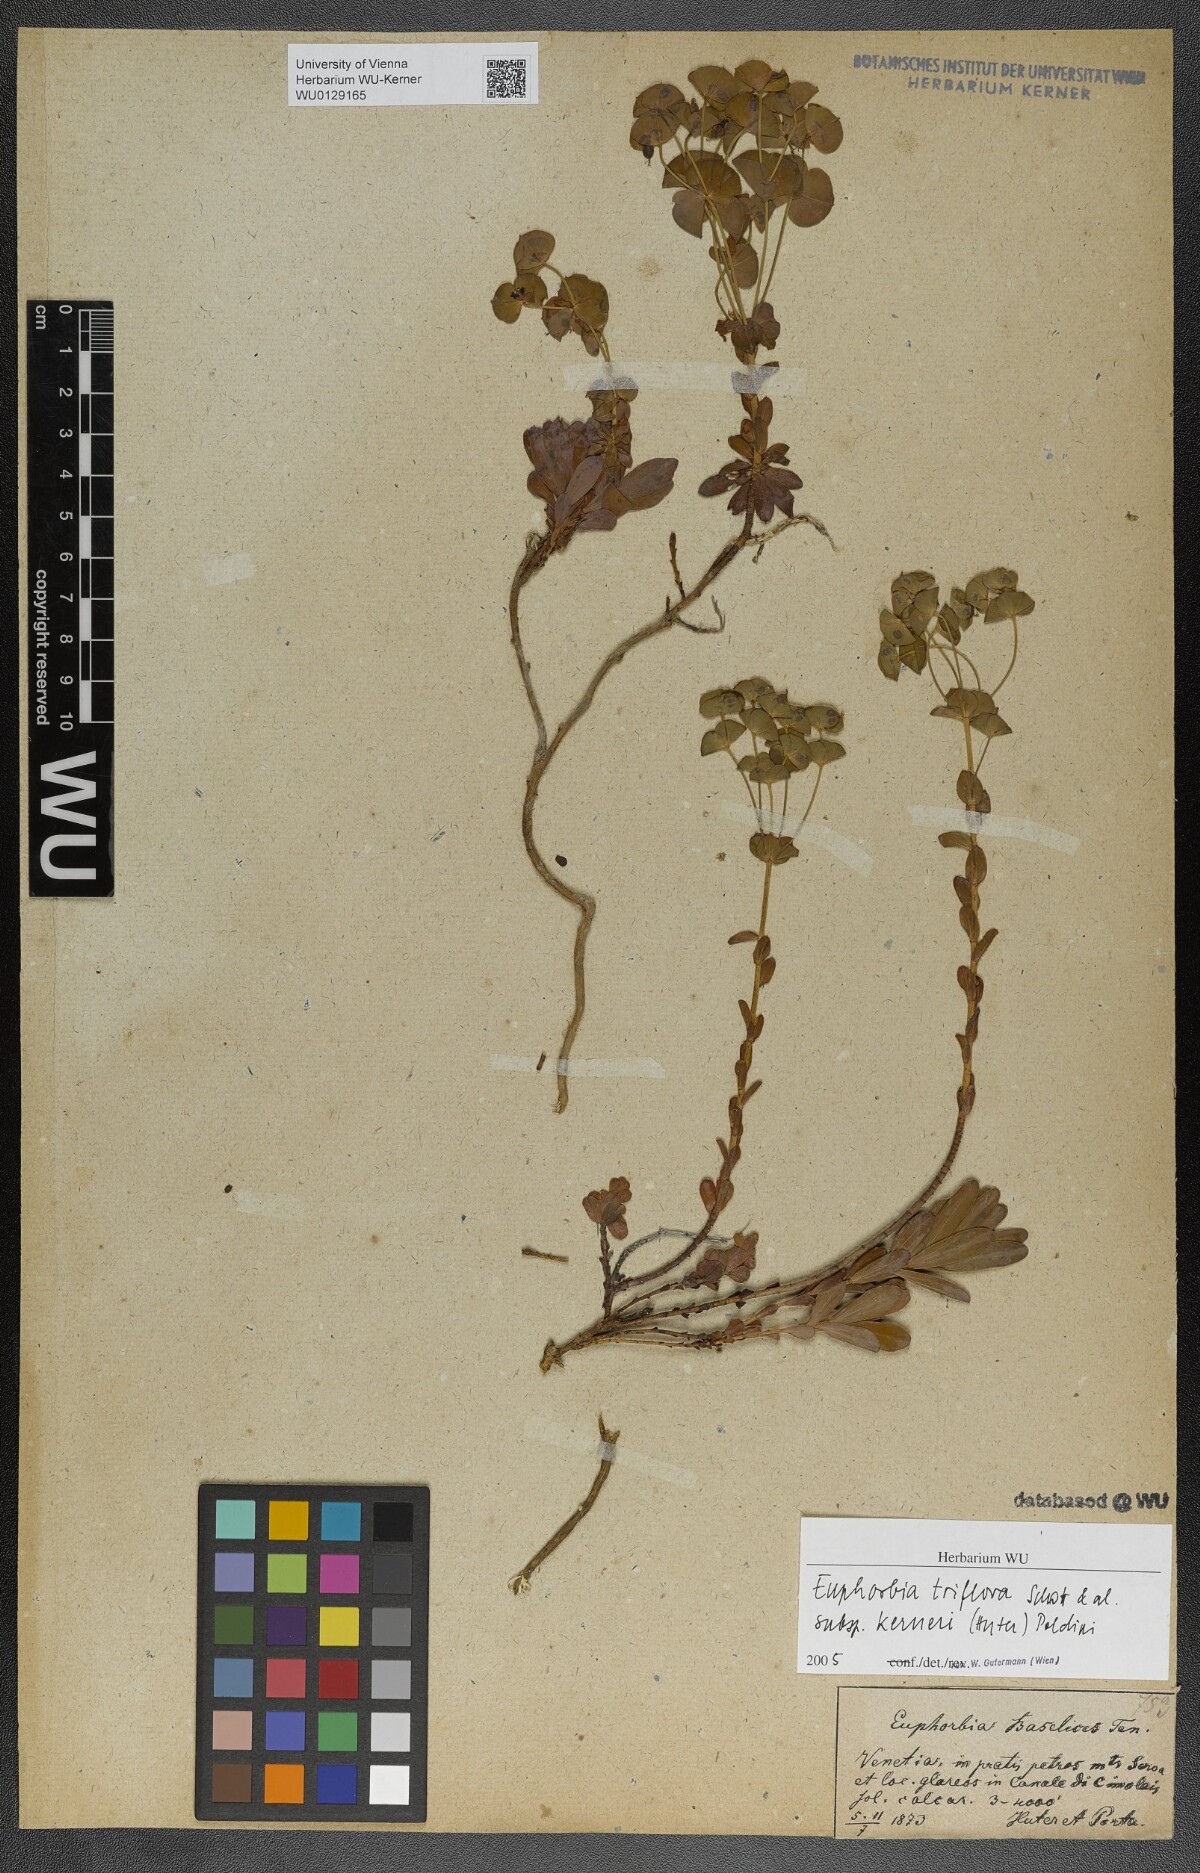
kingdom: Plantae
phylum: Tracheophyta
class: Magnoliopsida
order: Malpighiales
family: Euphorbiaceae
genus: Euphorbia
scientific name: Euphorbia kerneri
